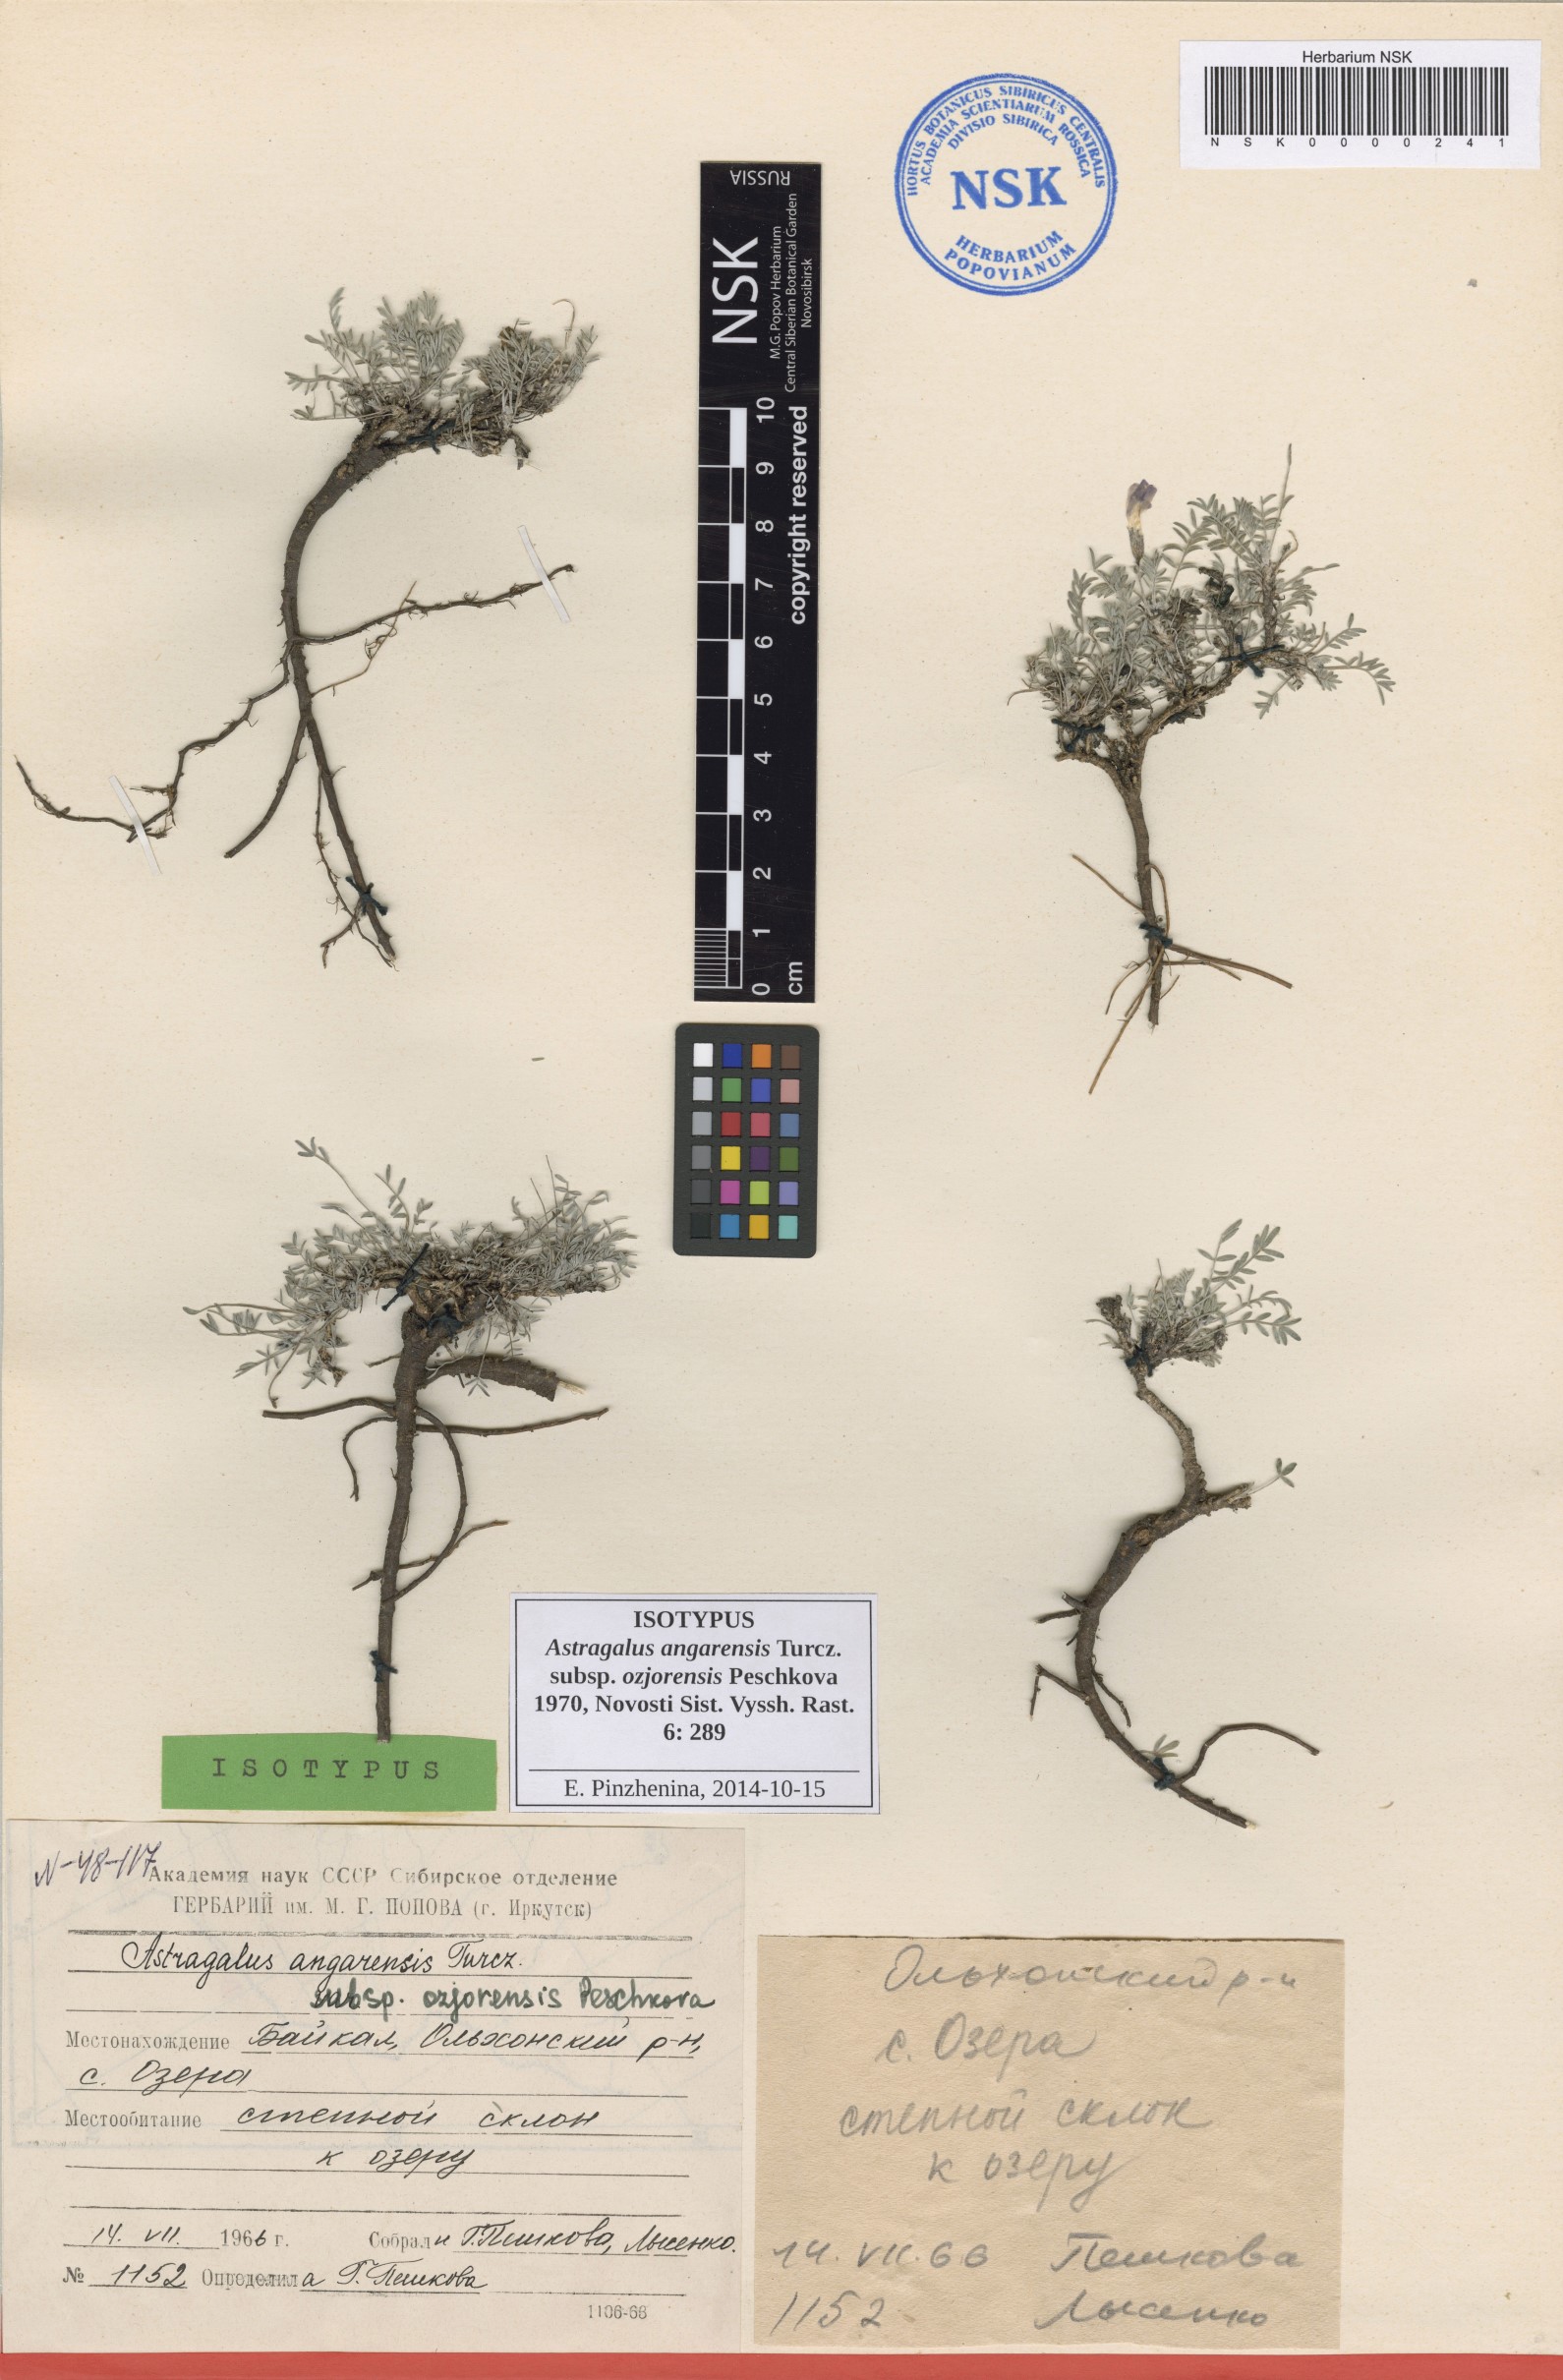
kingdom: Plantae
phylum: Tracheophyta
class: Magnoliopsida
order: Fabales
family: Fabaceae
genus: Astragalus
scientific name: Astragalus angarensis
